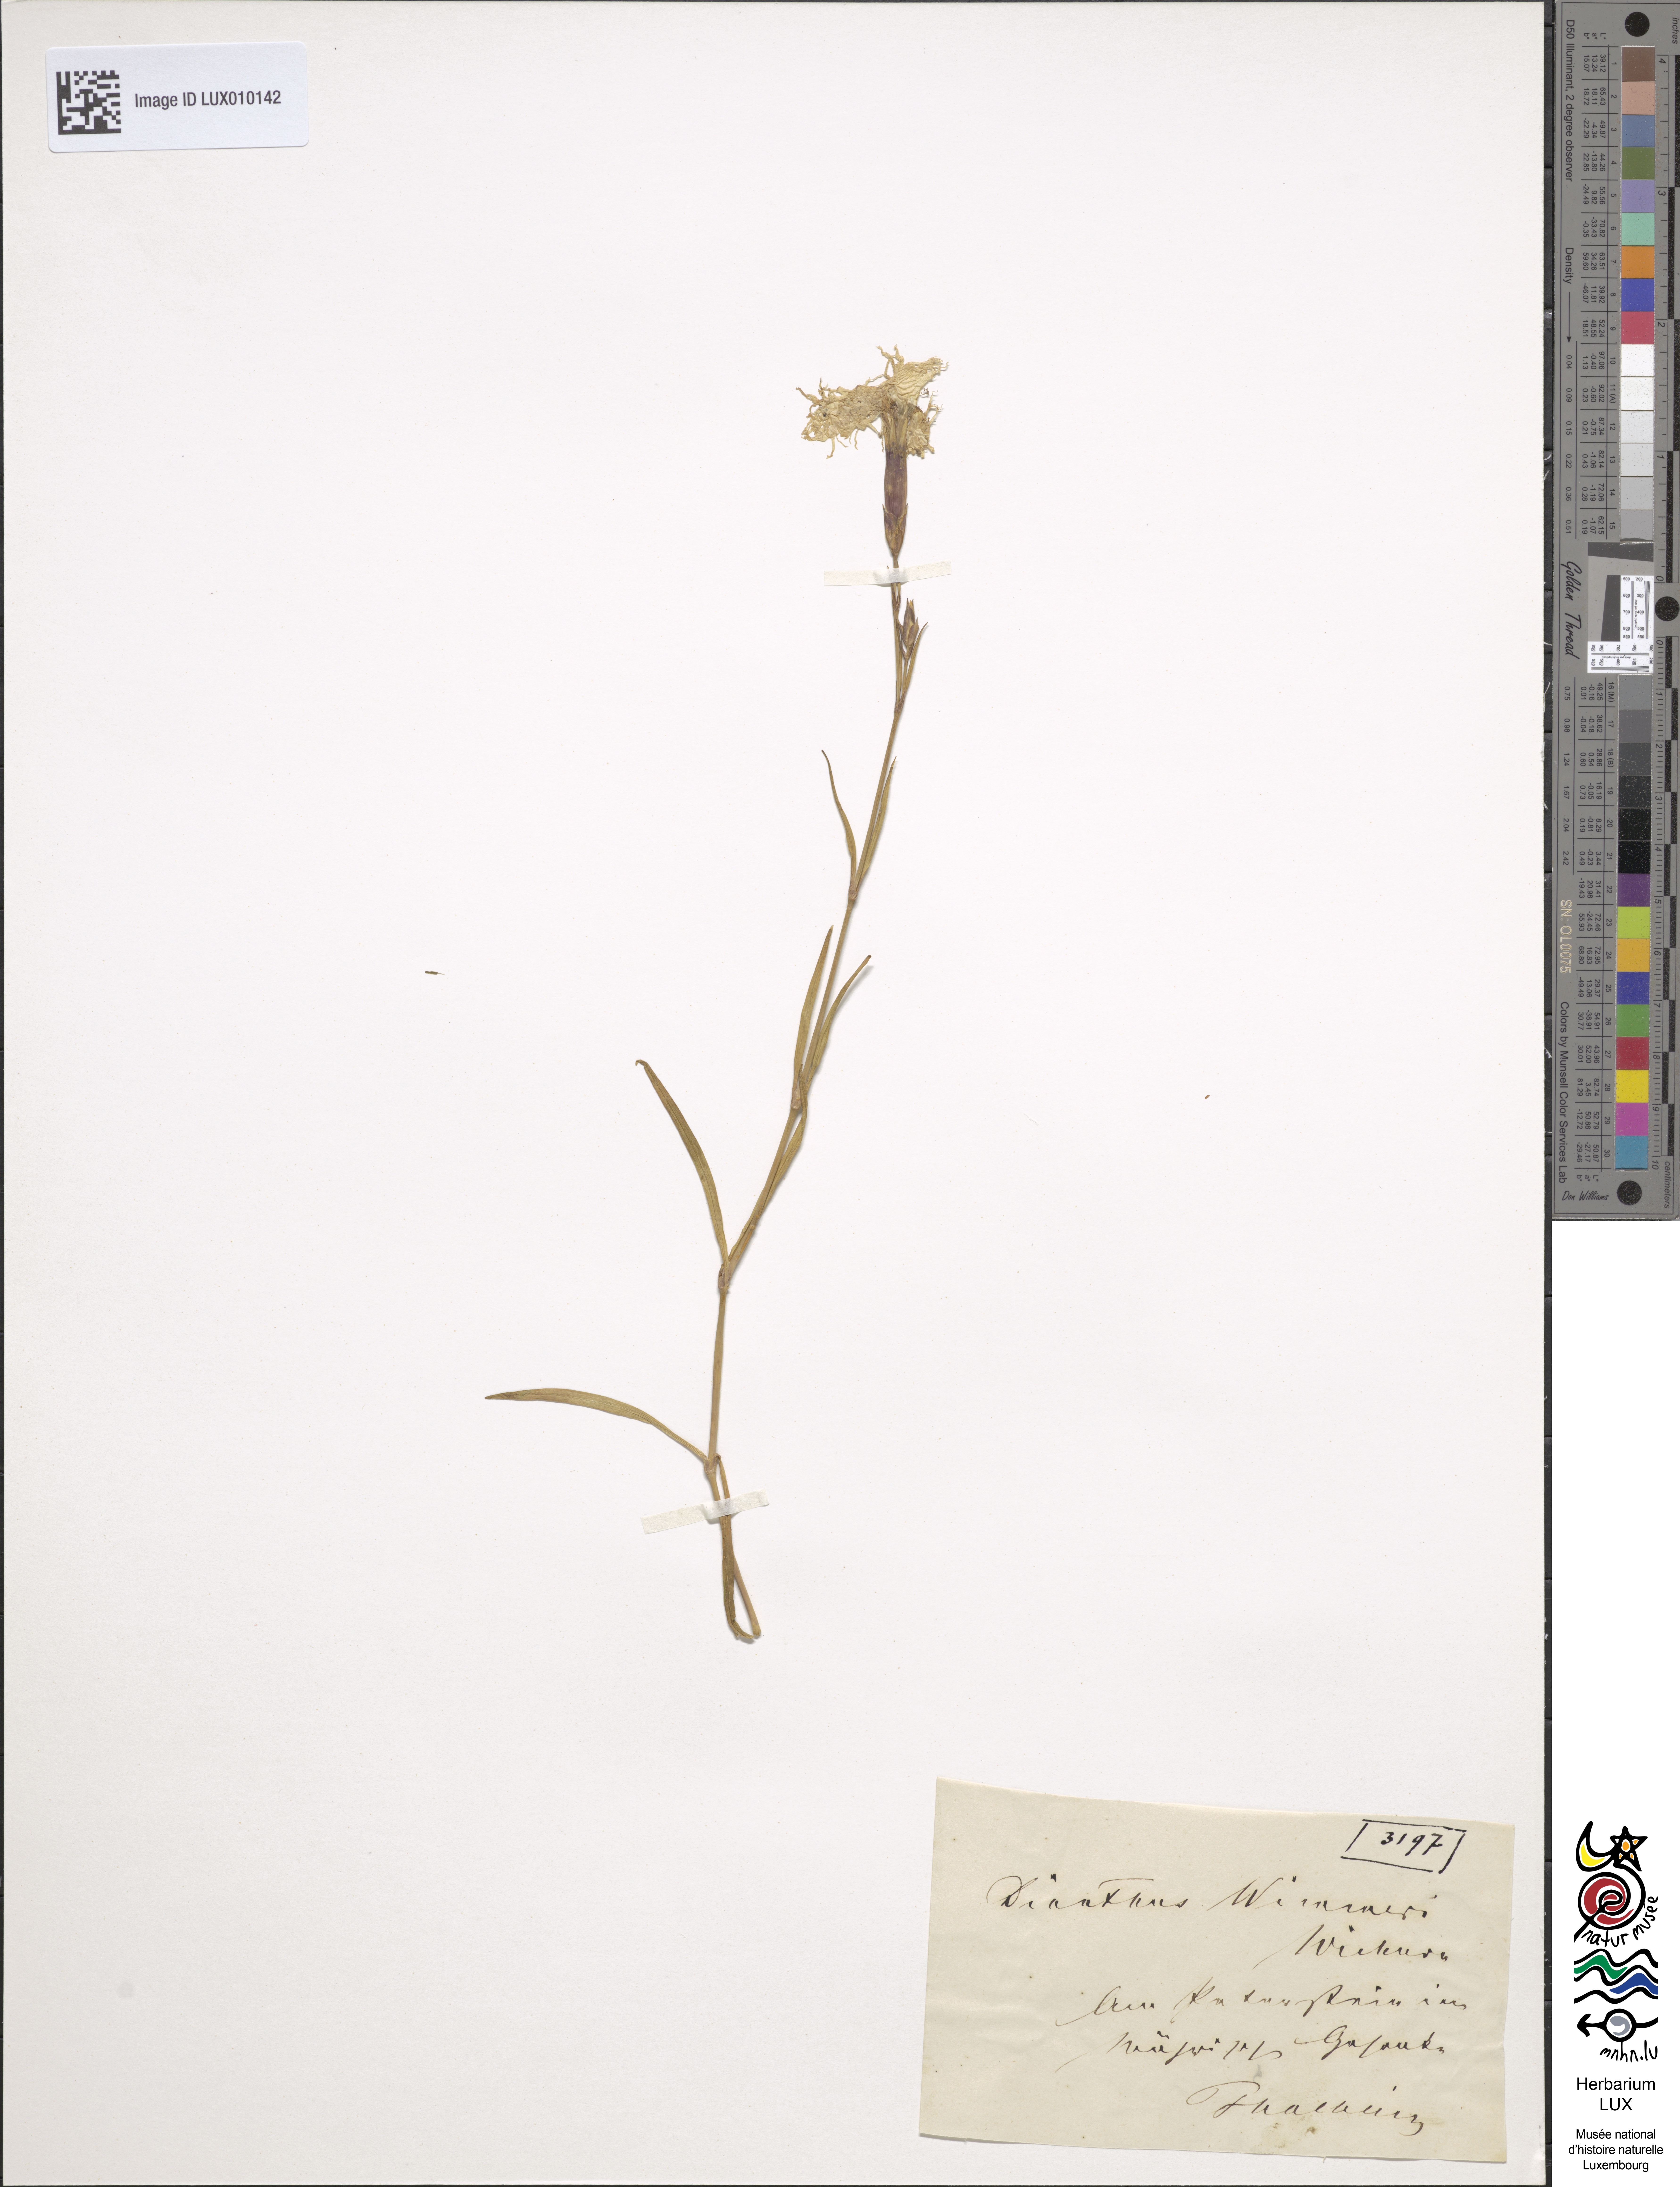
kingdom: Plantae
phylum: Tracheophyta
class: Magnoliopsida
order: Caryophyllales
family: Caryophyllaceae
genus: Dianthus
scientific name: Dianthus superbus
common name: Fringed pink
